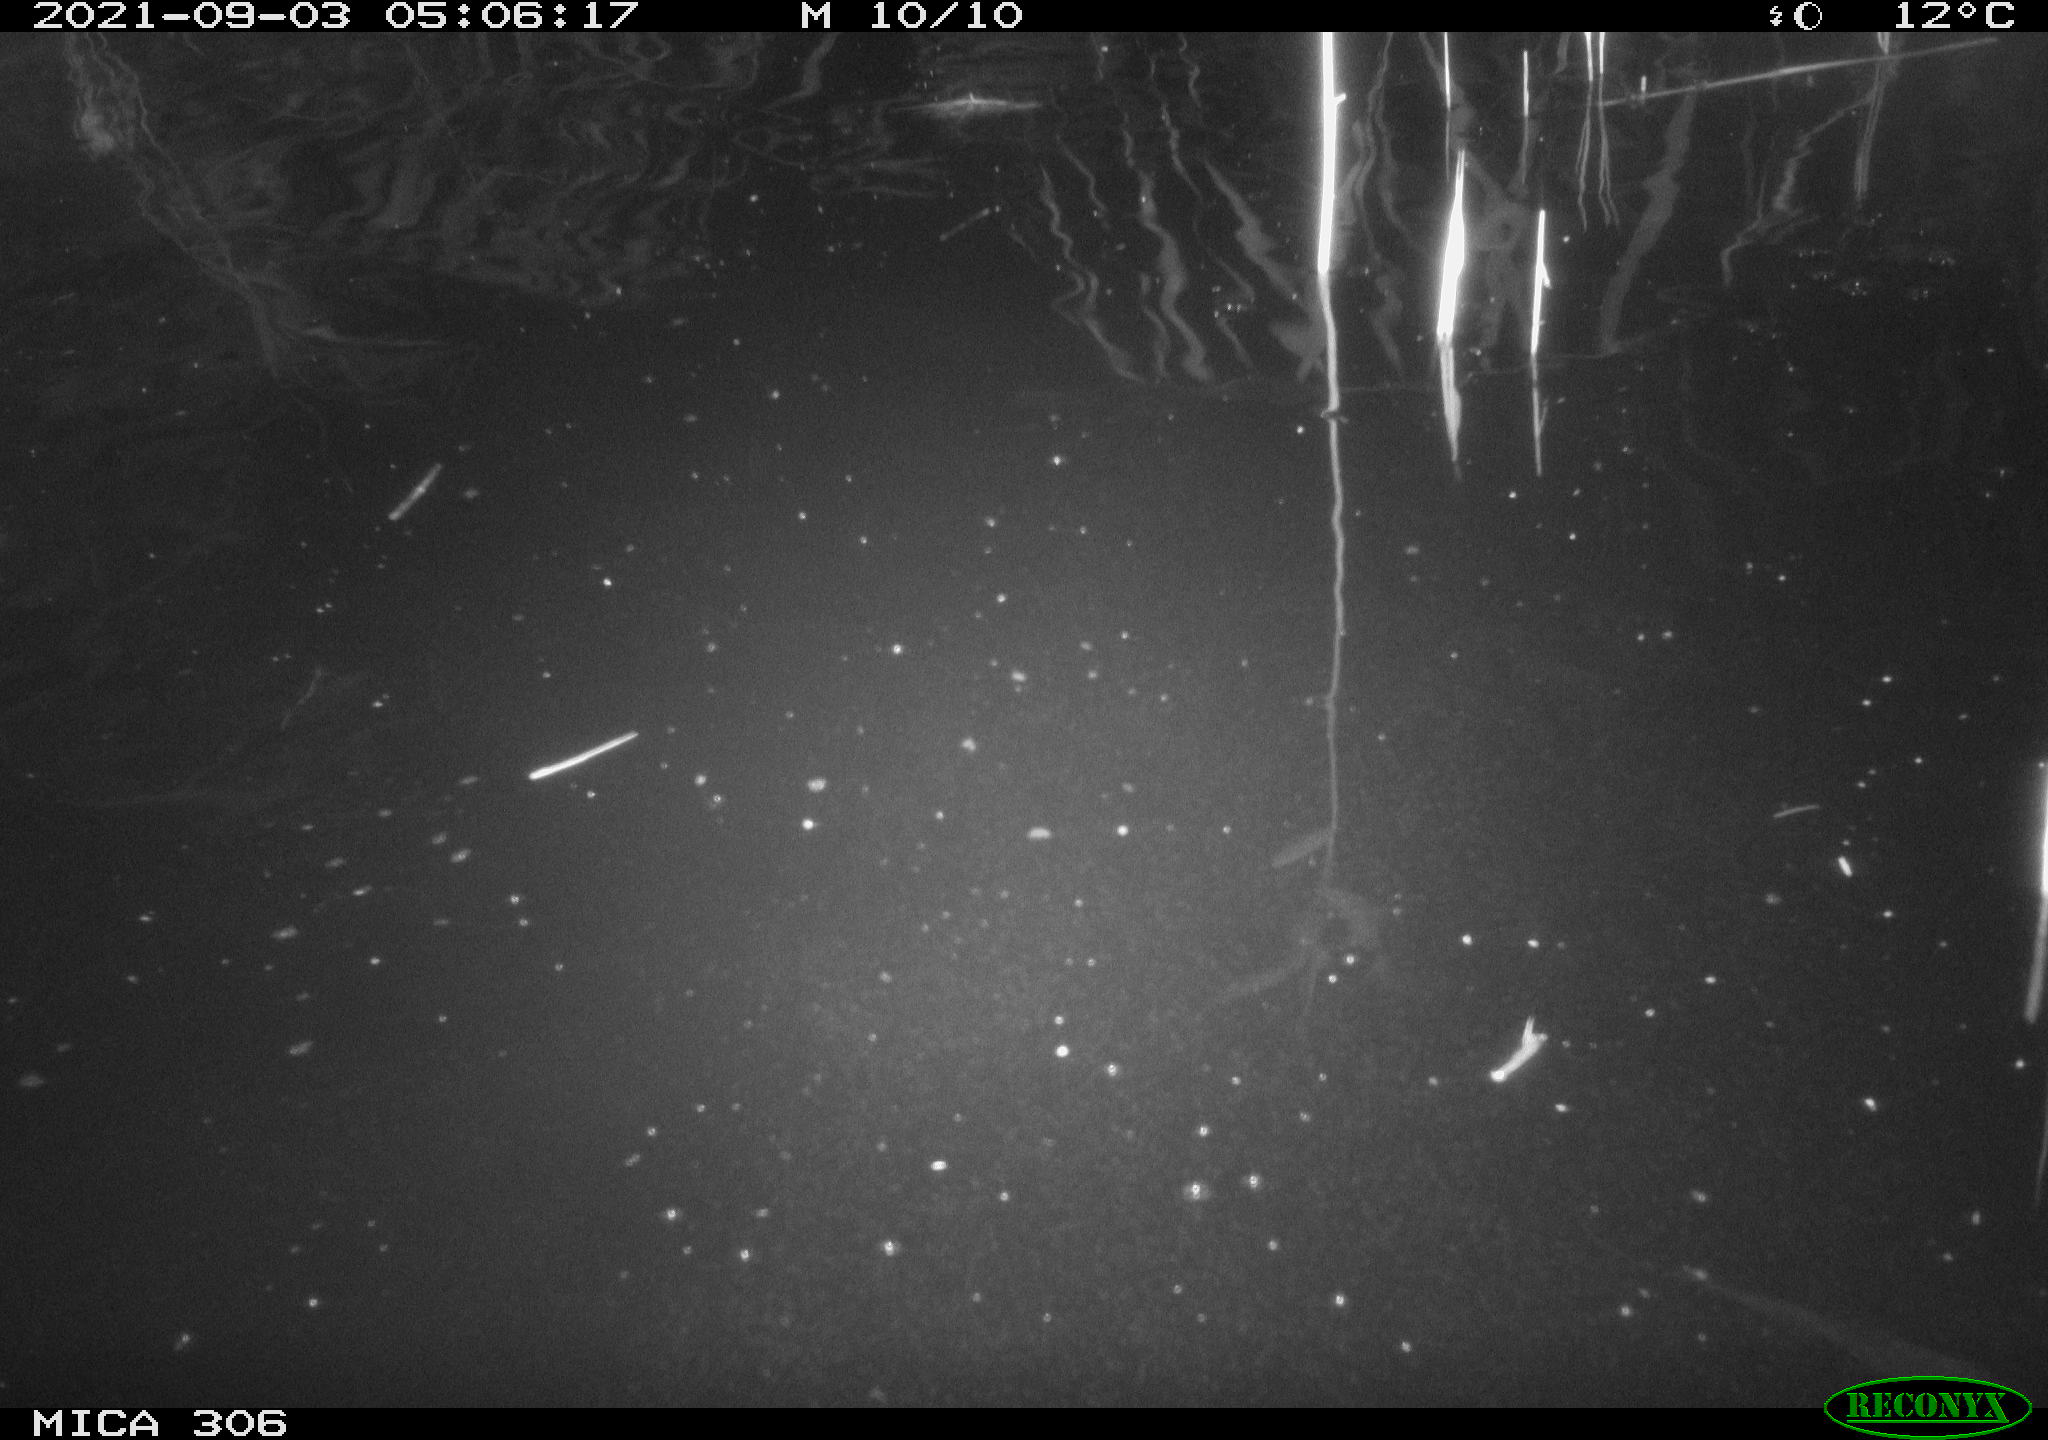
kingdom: Animalia
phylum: Chordata
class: Mammalia
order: Rodentia
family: Cricetidae
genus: Ondatra
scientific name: Ondatra zibethicus
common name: Muskrat
